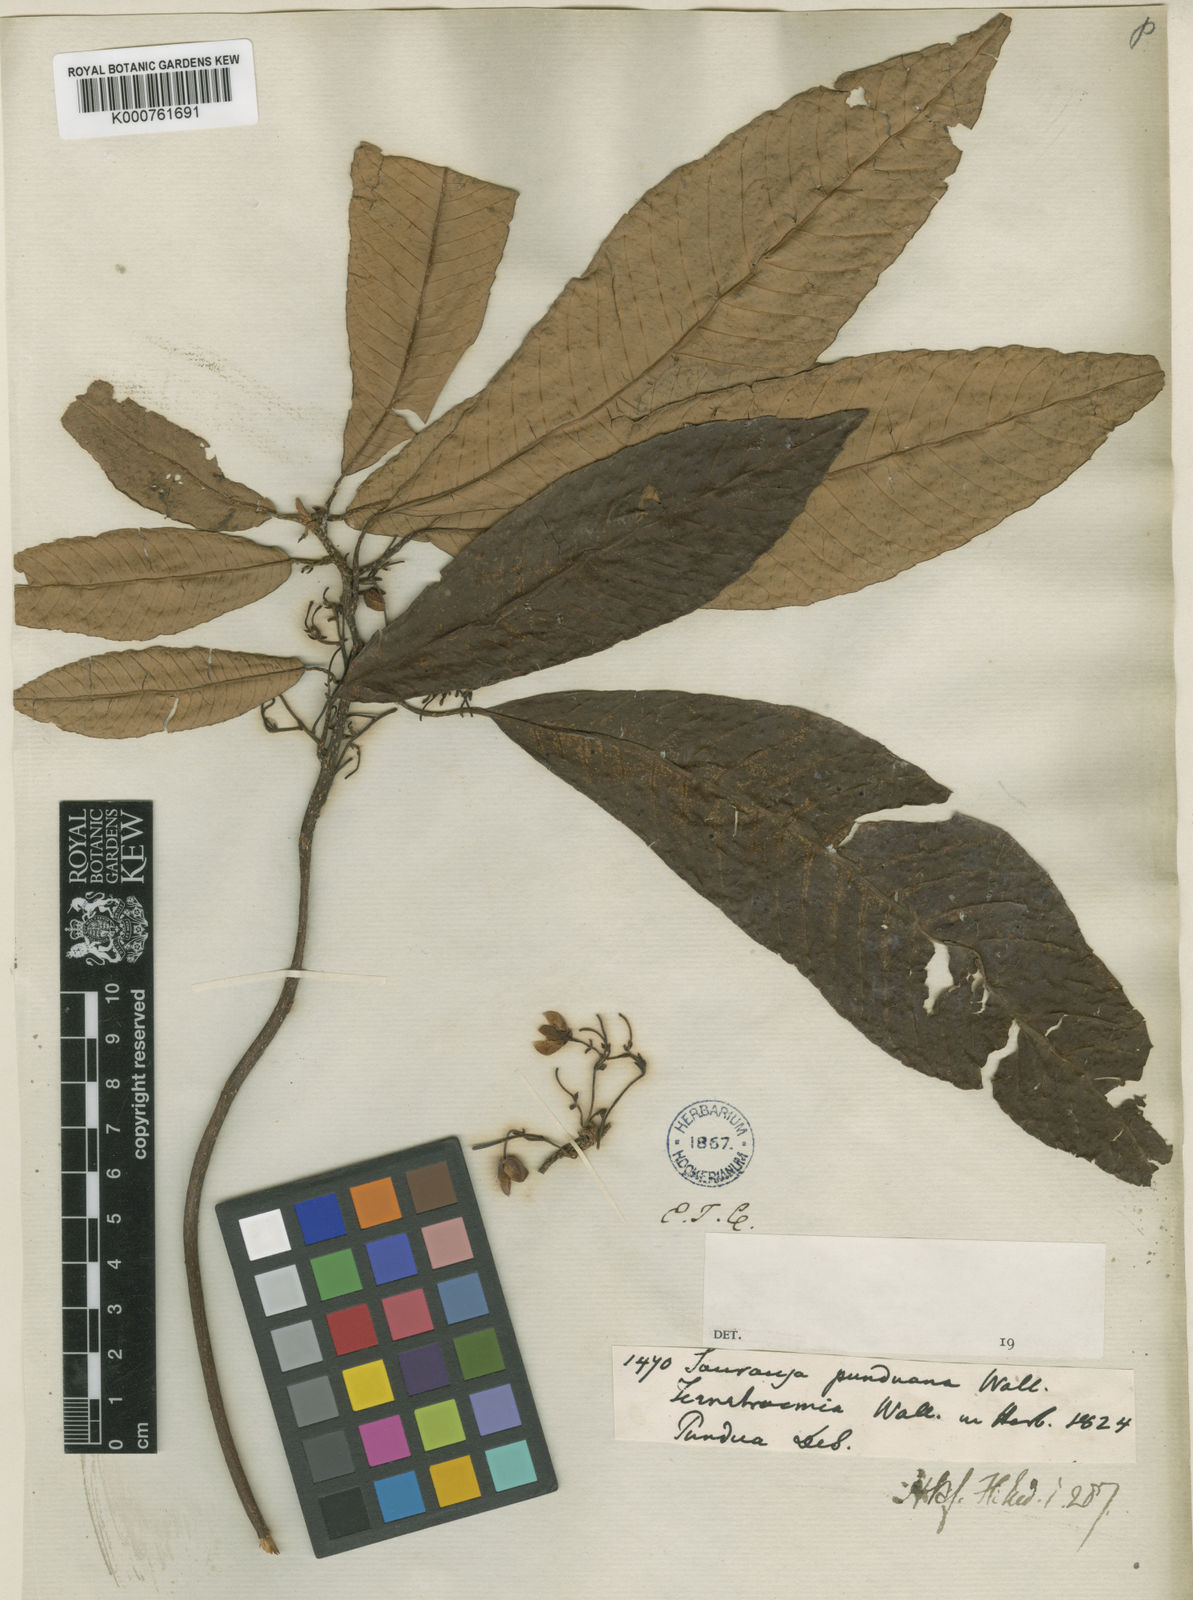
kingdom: Plantae
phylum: Tracheophyta
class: Magnoliopsida
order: Ericales
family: Actinidiaceae
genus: Saurauia
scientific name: Saurauia punduana
